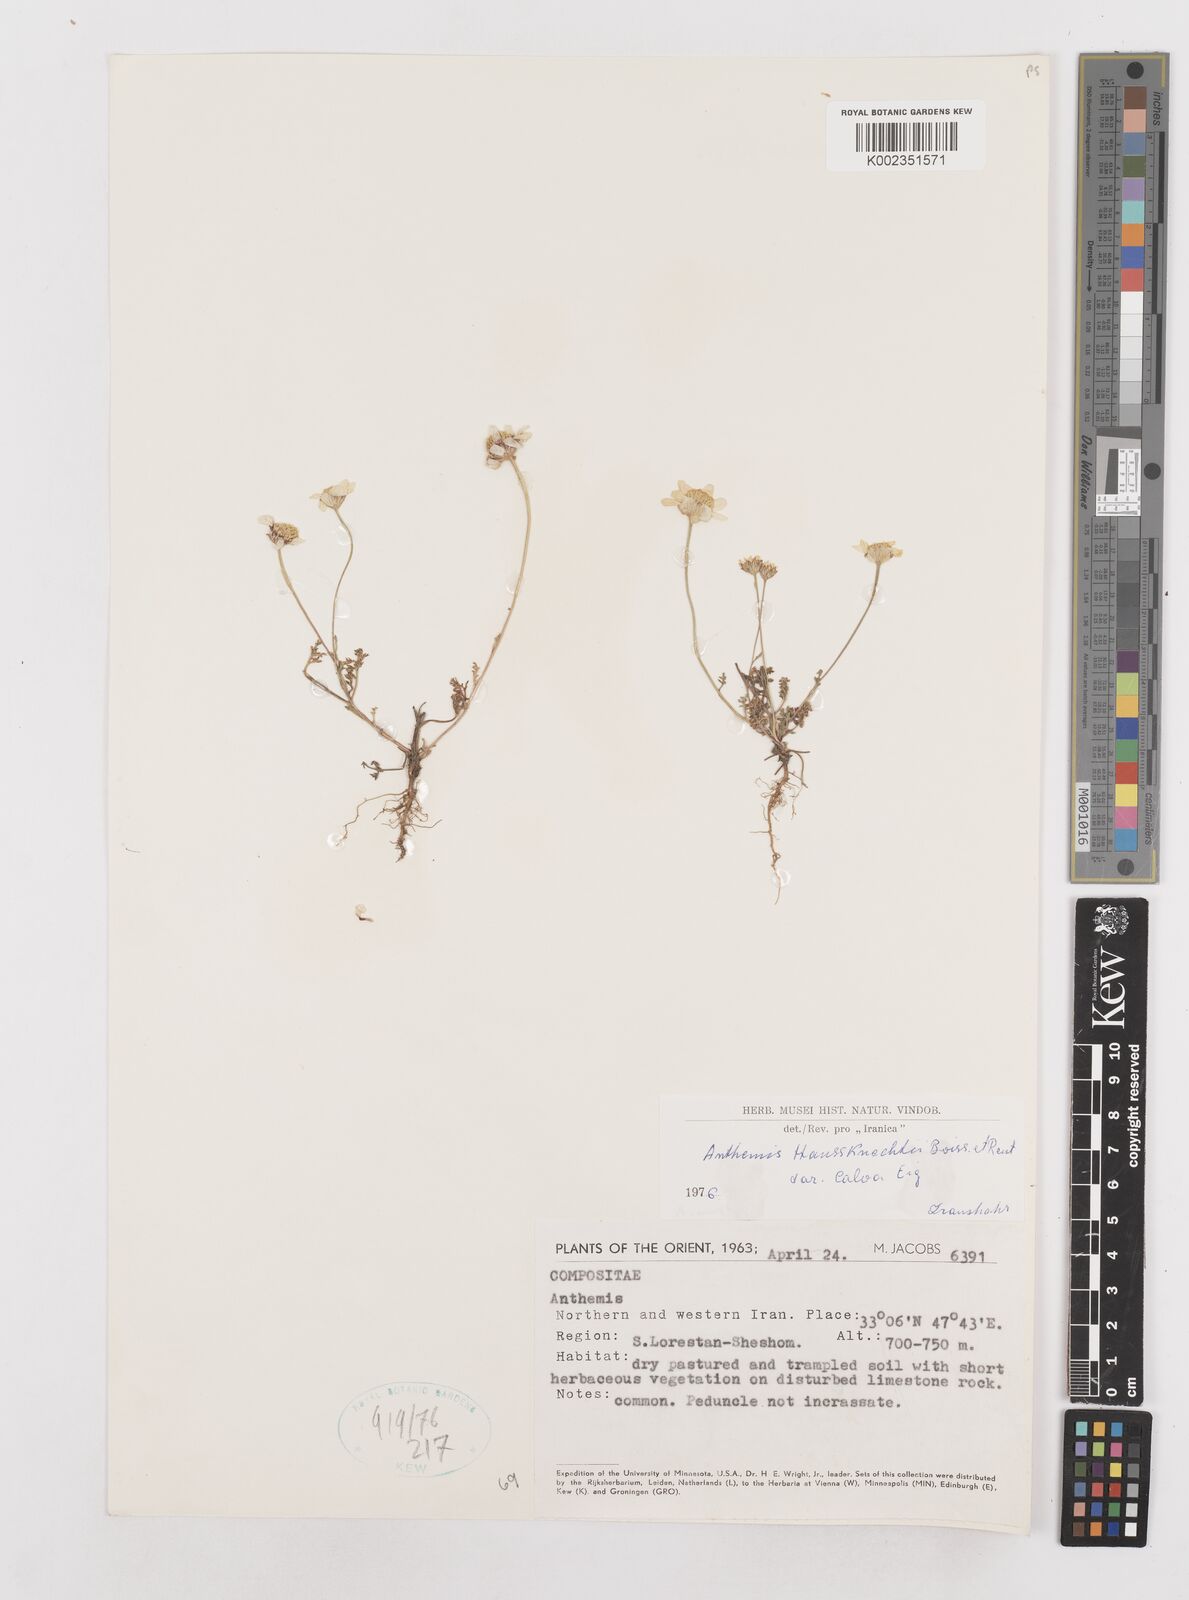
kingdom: Plantae
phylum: Tracheophyta
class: Magnoliopsida
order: Asterales
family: Asteraceae
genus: Anthemis
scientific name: Anthemis haussknechtii
